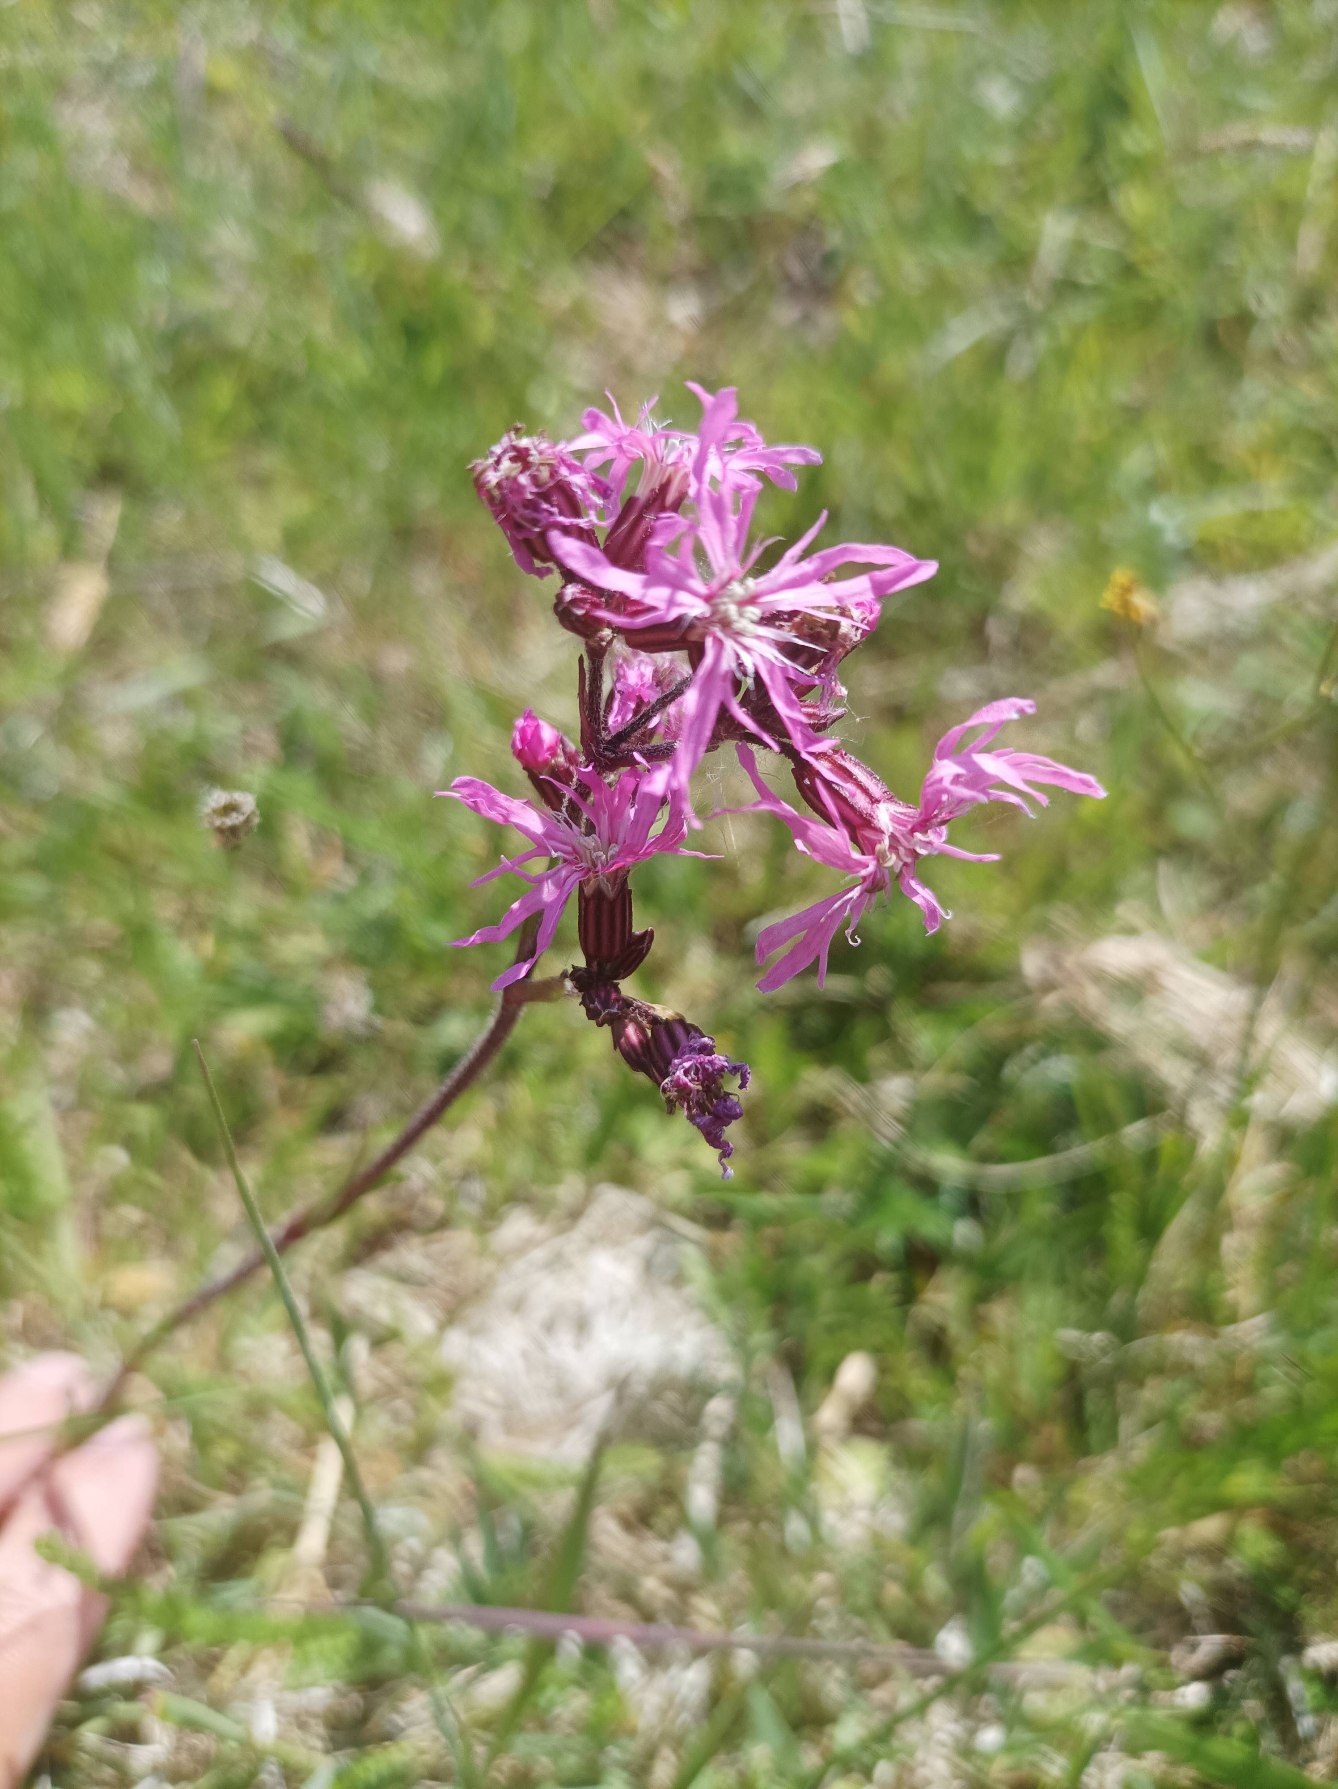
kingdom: Plantae
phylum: Tracheophyta
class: Magnoliopsida
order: Caryophyllales
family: Caryophyllaceae
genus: Silene
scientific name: Silene flos-cuculi
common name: Trævlekrone
